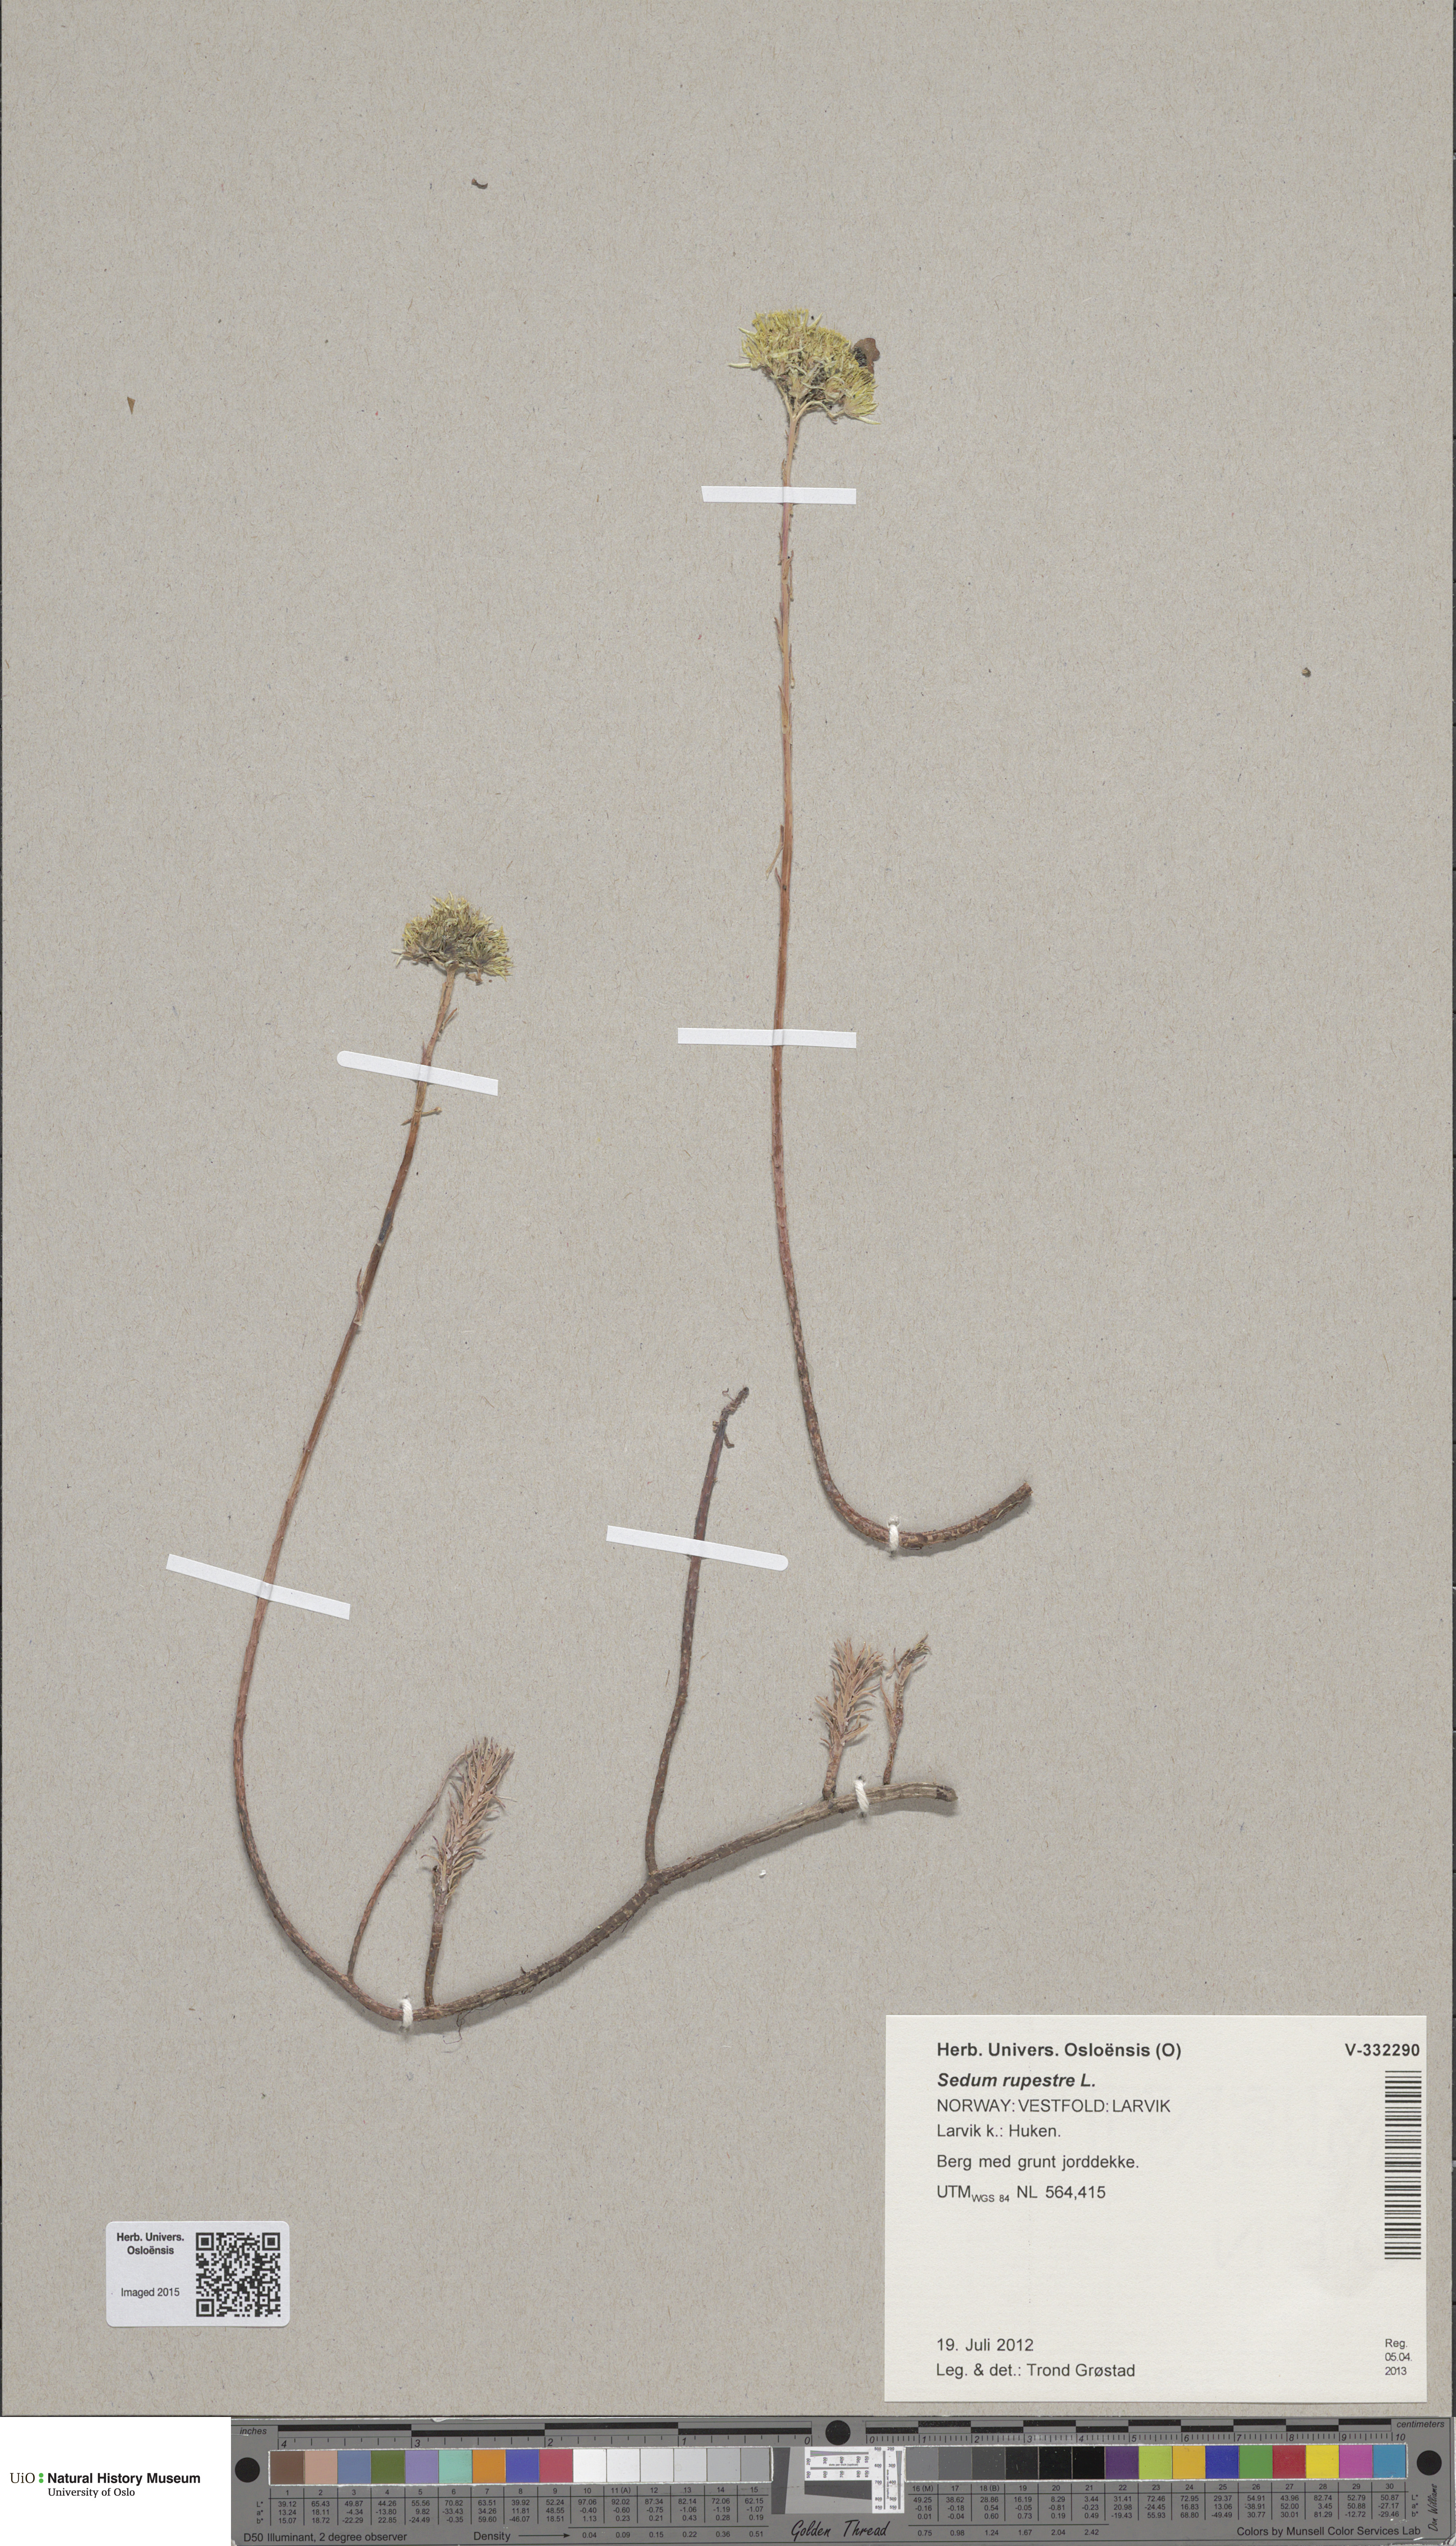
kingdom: Plantae
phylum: Tracheophyta
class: Magnoliopsida
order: Saxifragales
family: Crassulaceae
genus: Petrosedum
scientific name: Petrosedum rupestre
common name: Jenny's stonecrop
